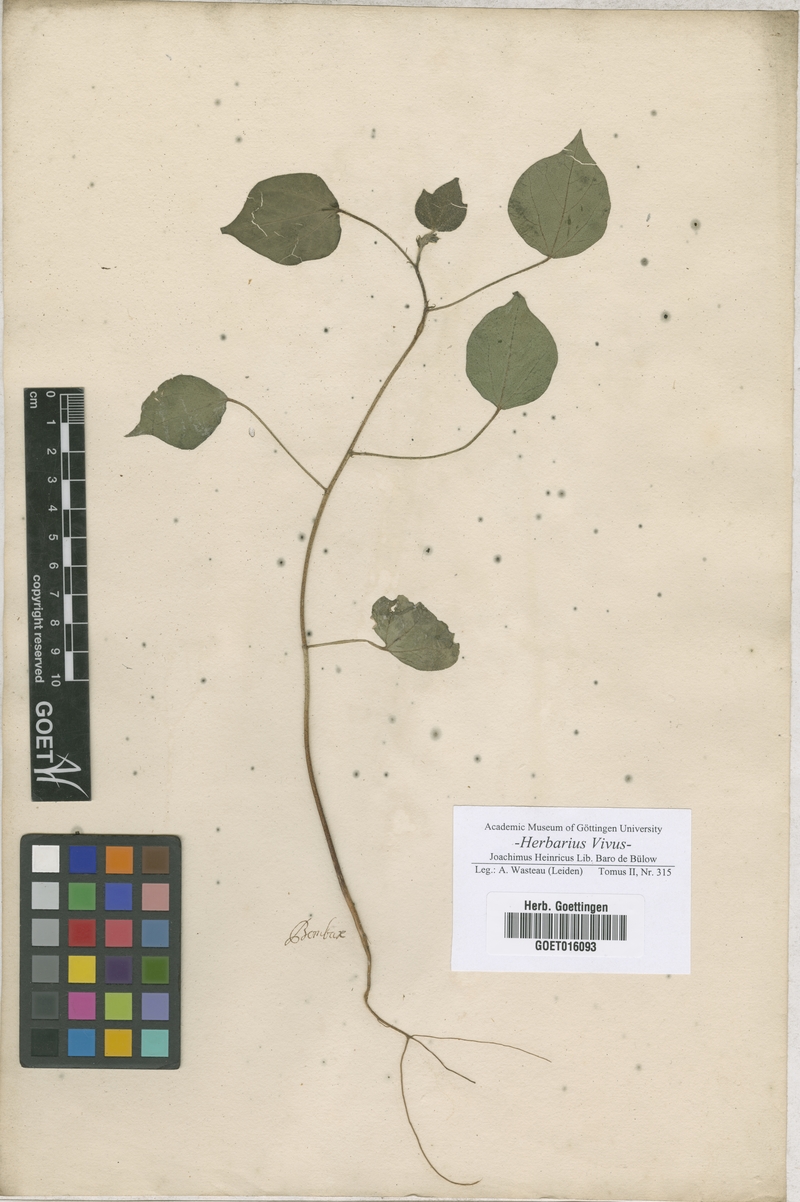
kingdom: Plantae
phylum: Tracheophyta
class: Magnoliopsida
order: Malvales
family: Malvaceae
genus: Bombax
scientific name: Bombax
